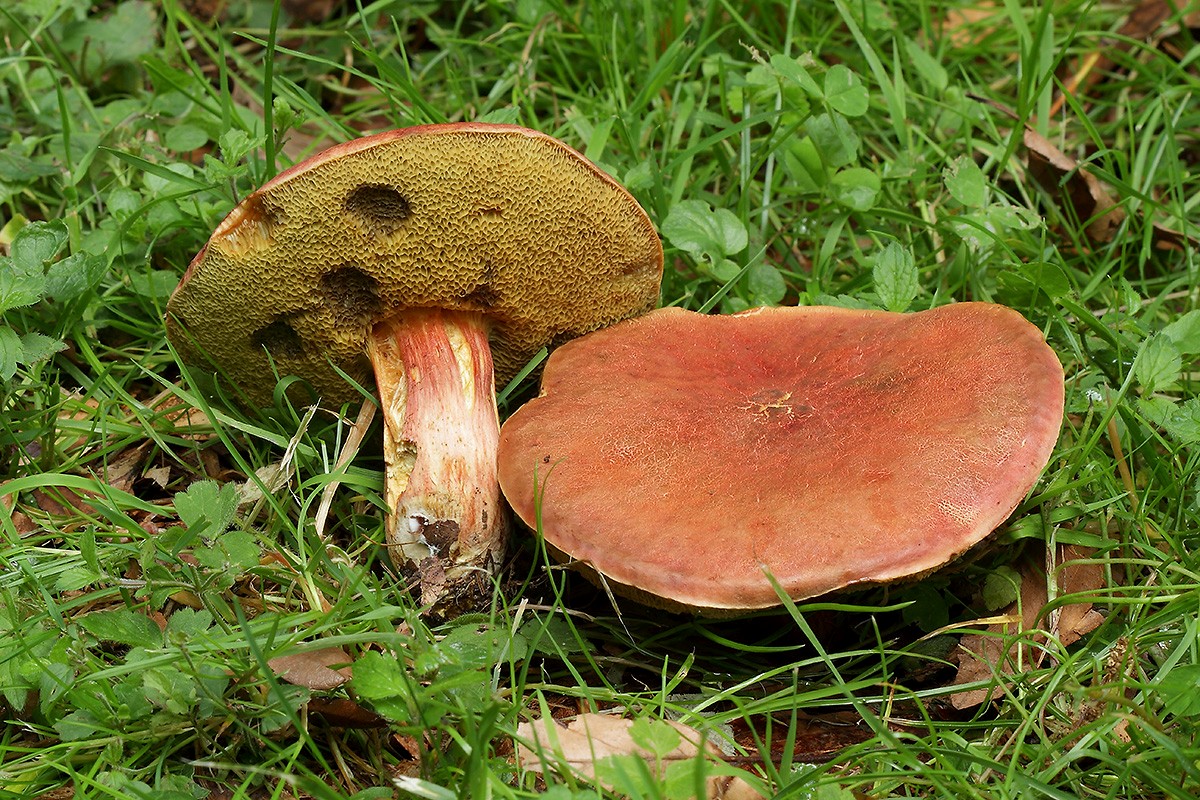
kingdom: Fungi
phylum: Basidiomycota
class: Agaricomycetes
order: Boletales
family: Boletaceae
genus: Hortiboletus
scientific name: Hortiboletus engelii
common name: fersken-rørhat
